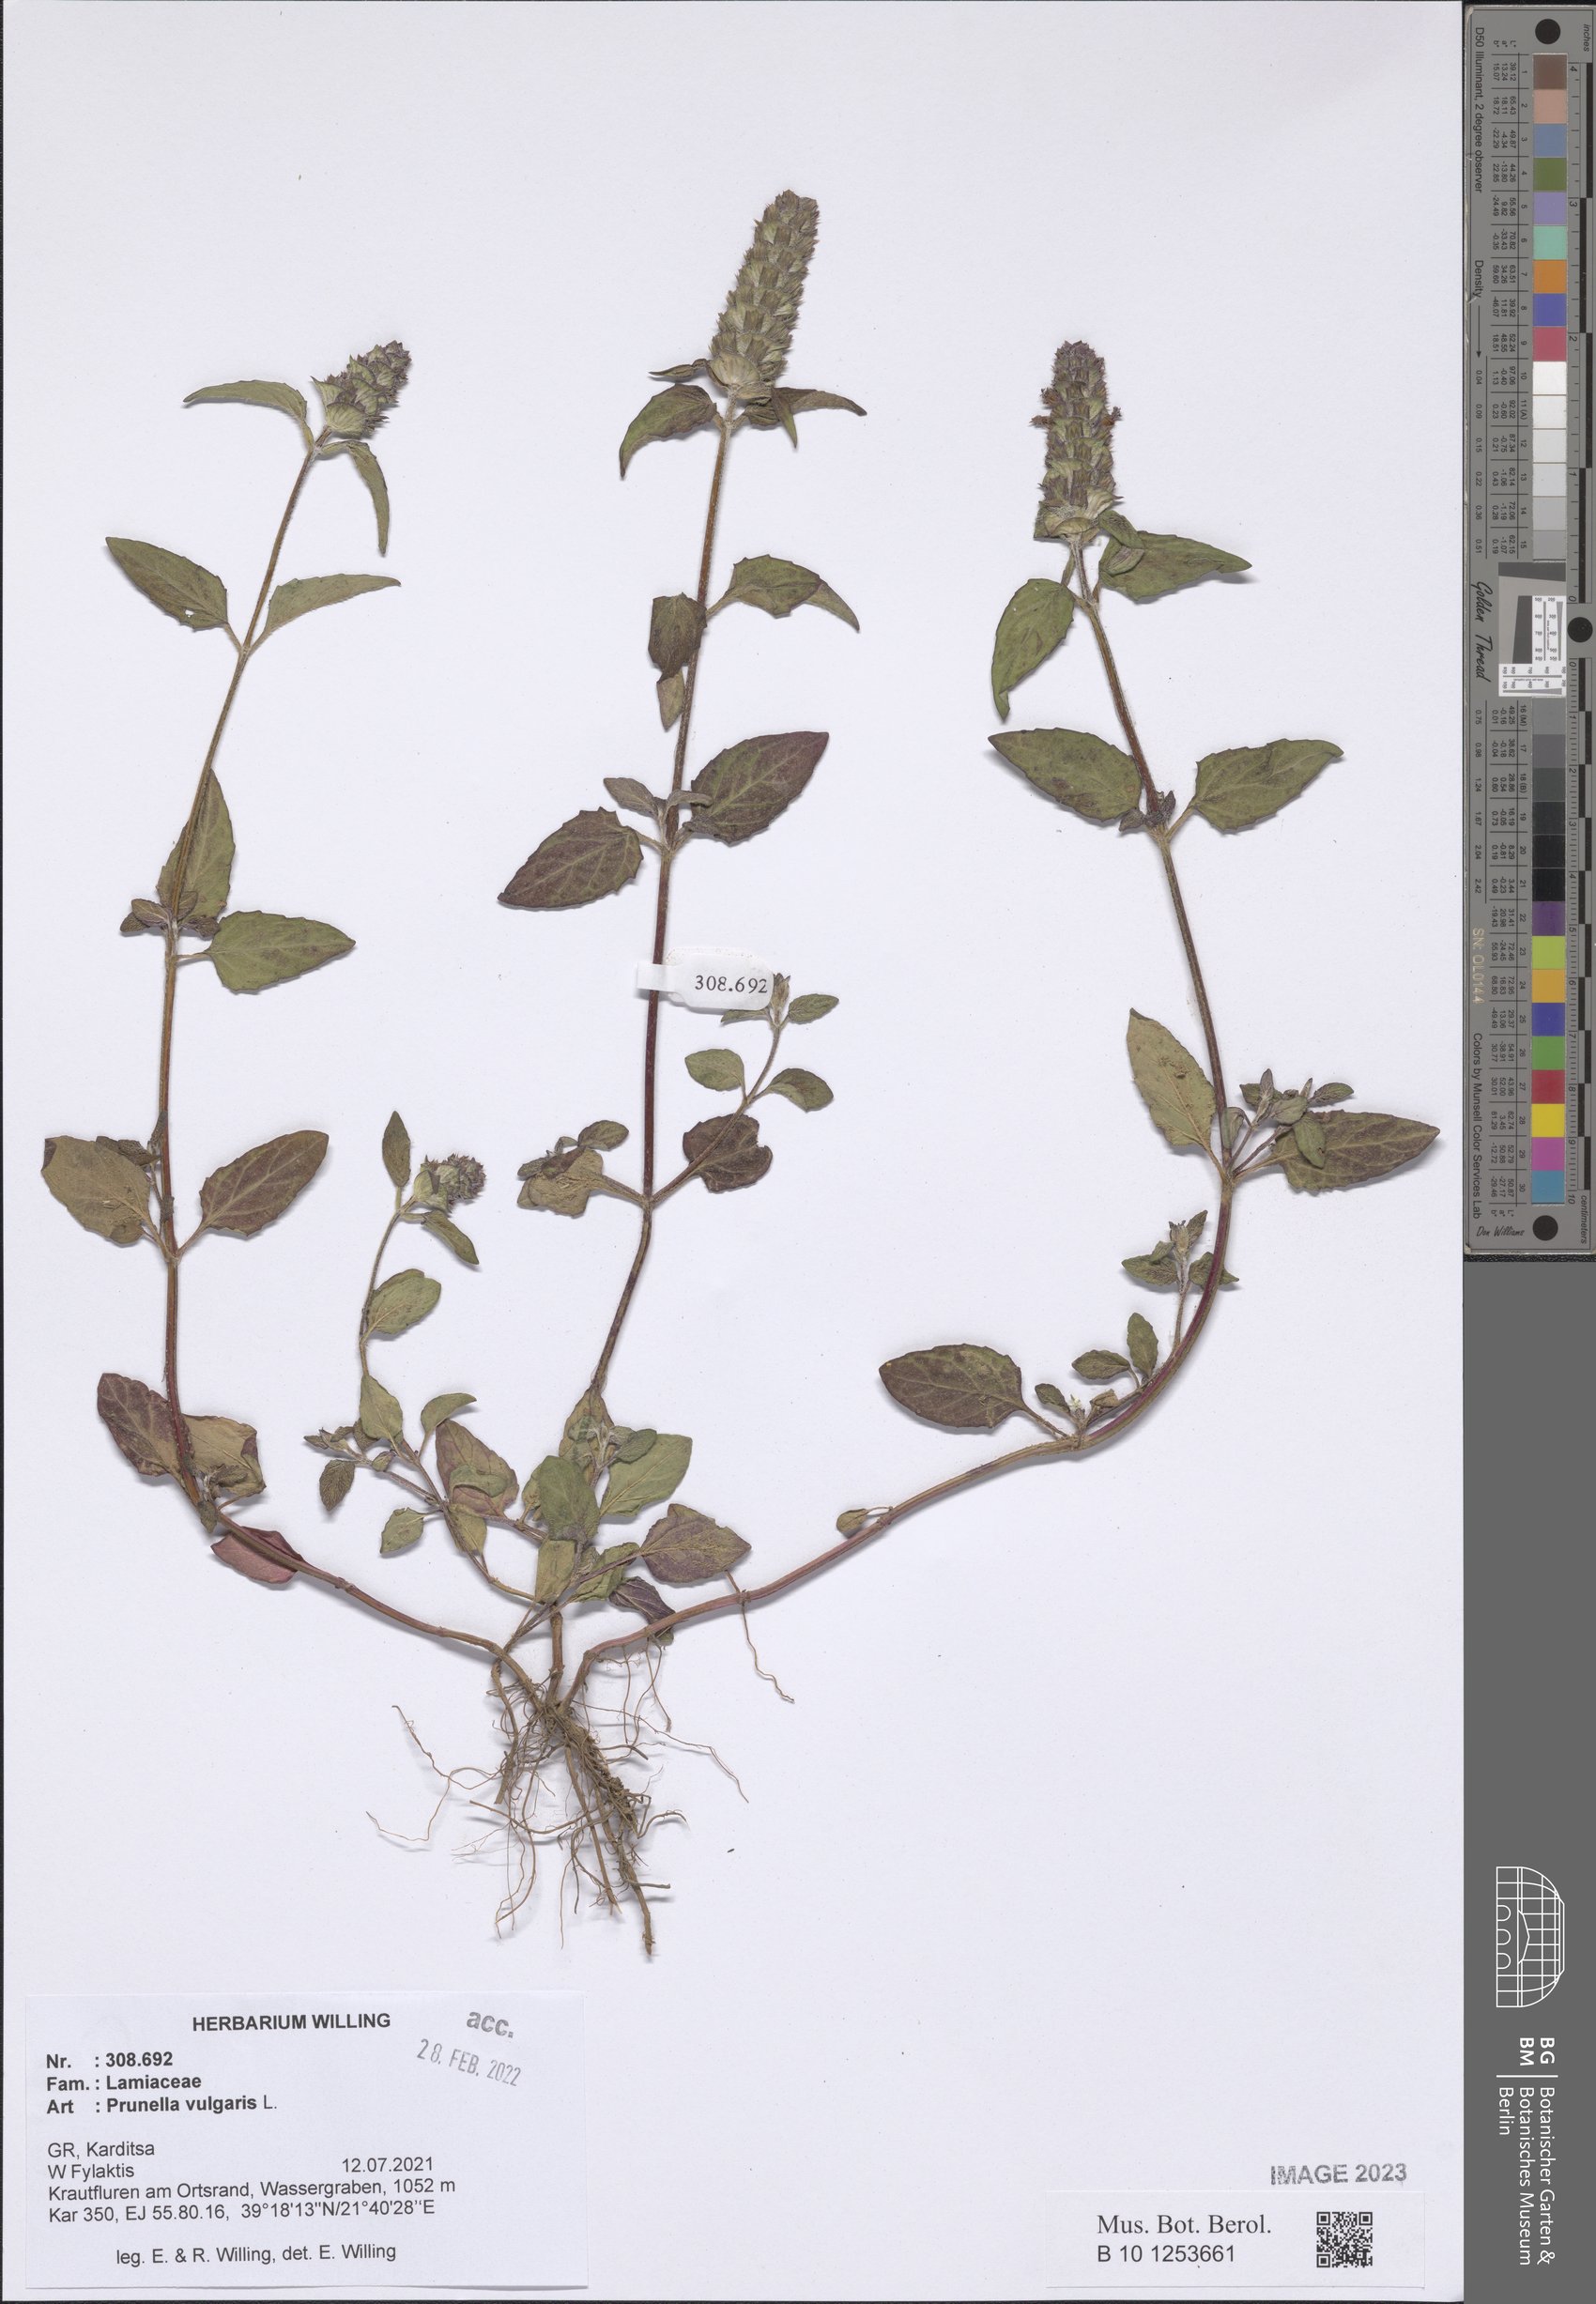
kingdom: Plantae
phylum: Tracheophyta
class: Magnoliopsida
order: Lamiales
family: Lamiaceae
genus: Prunella
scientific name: Prunella vulgaris
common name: Heal-all
